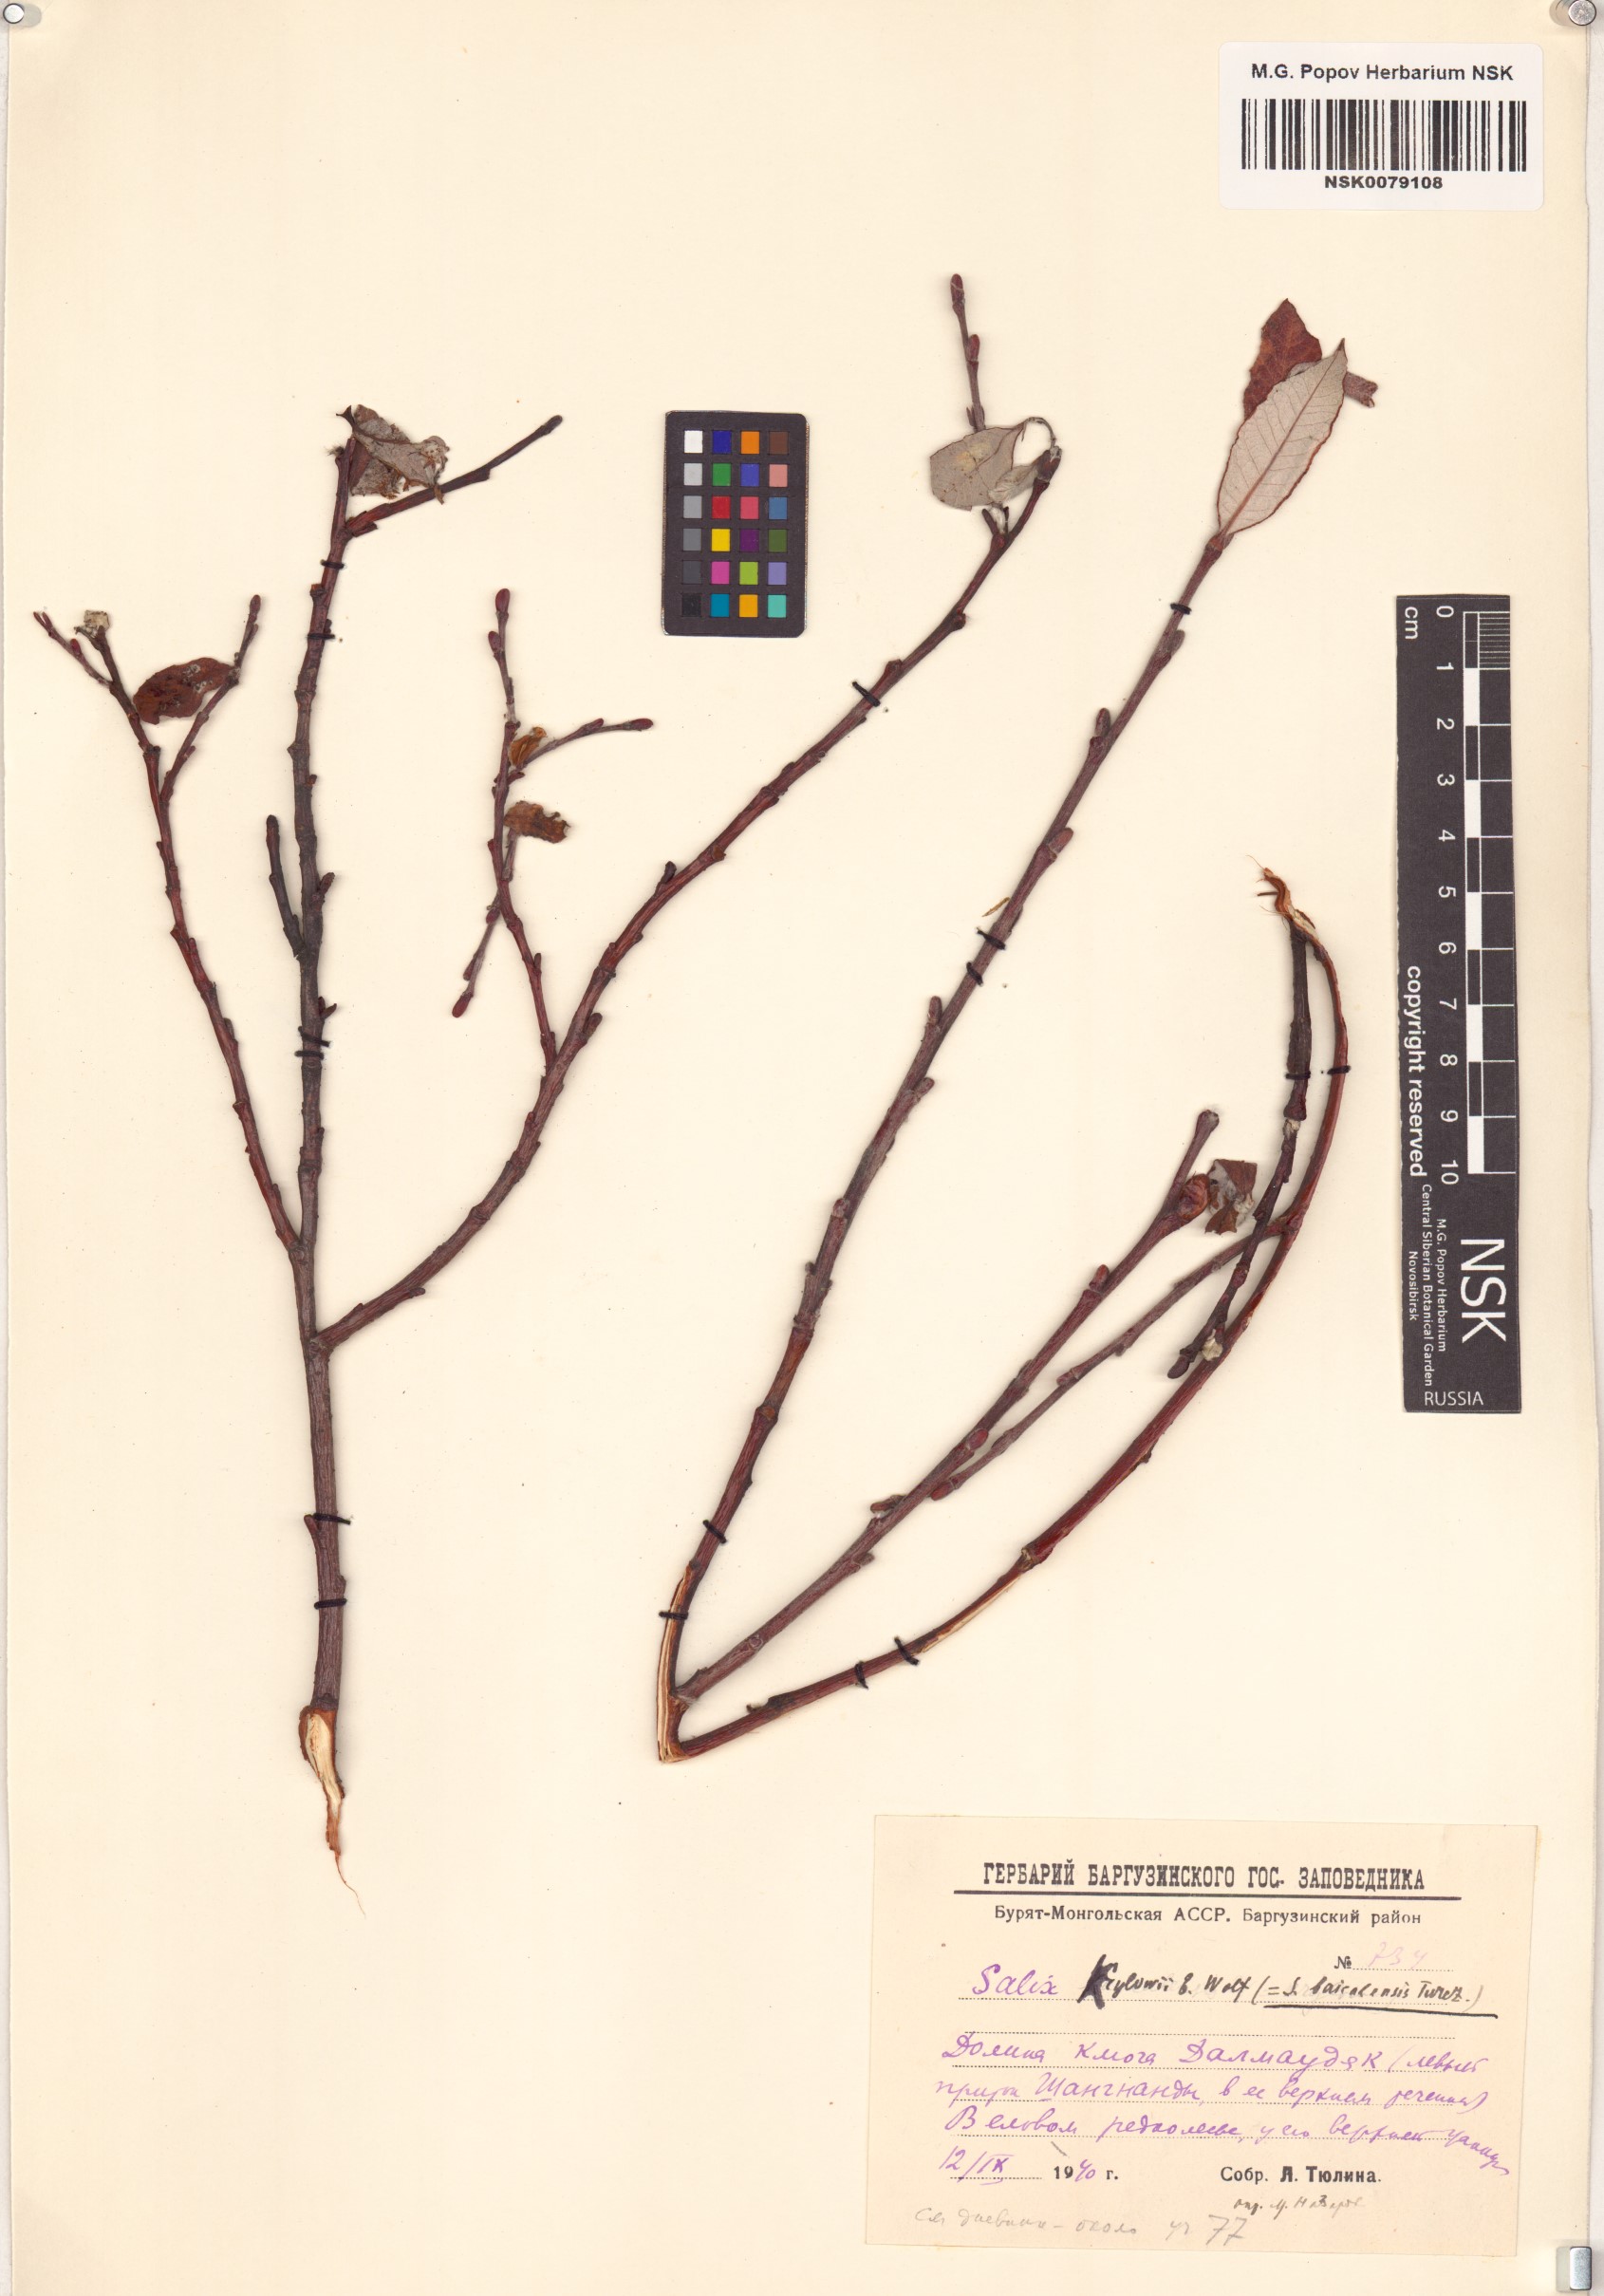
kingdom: Plantae
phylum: Tracheophyta
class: Magnoliopsida
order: Malpighiales
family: Salicaceae
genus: Salix
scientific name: Salix krylovii
